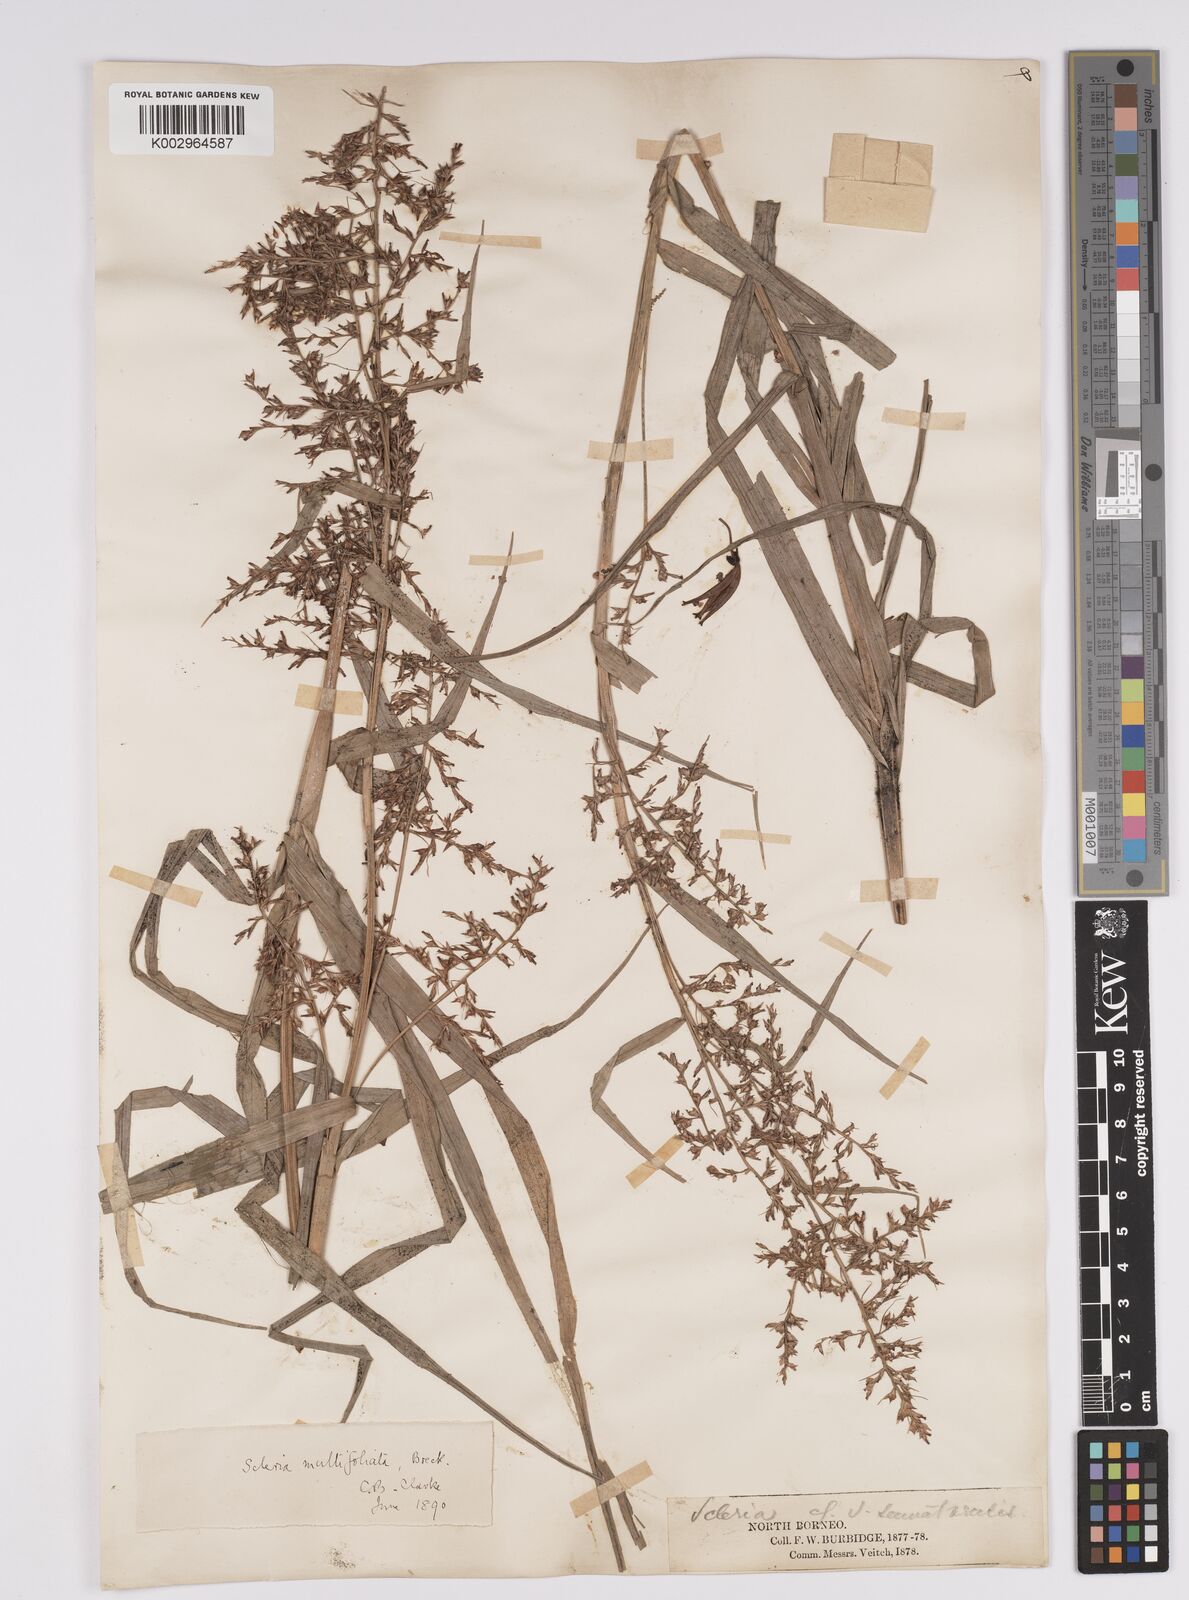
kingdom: Plantae
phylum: Tracheophyta
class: Liliopsida
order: Poales
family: Cyperaceae
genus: Scleria
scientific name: Scleria purpurascens
